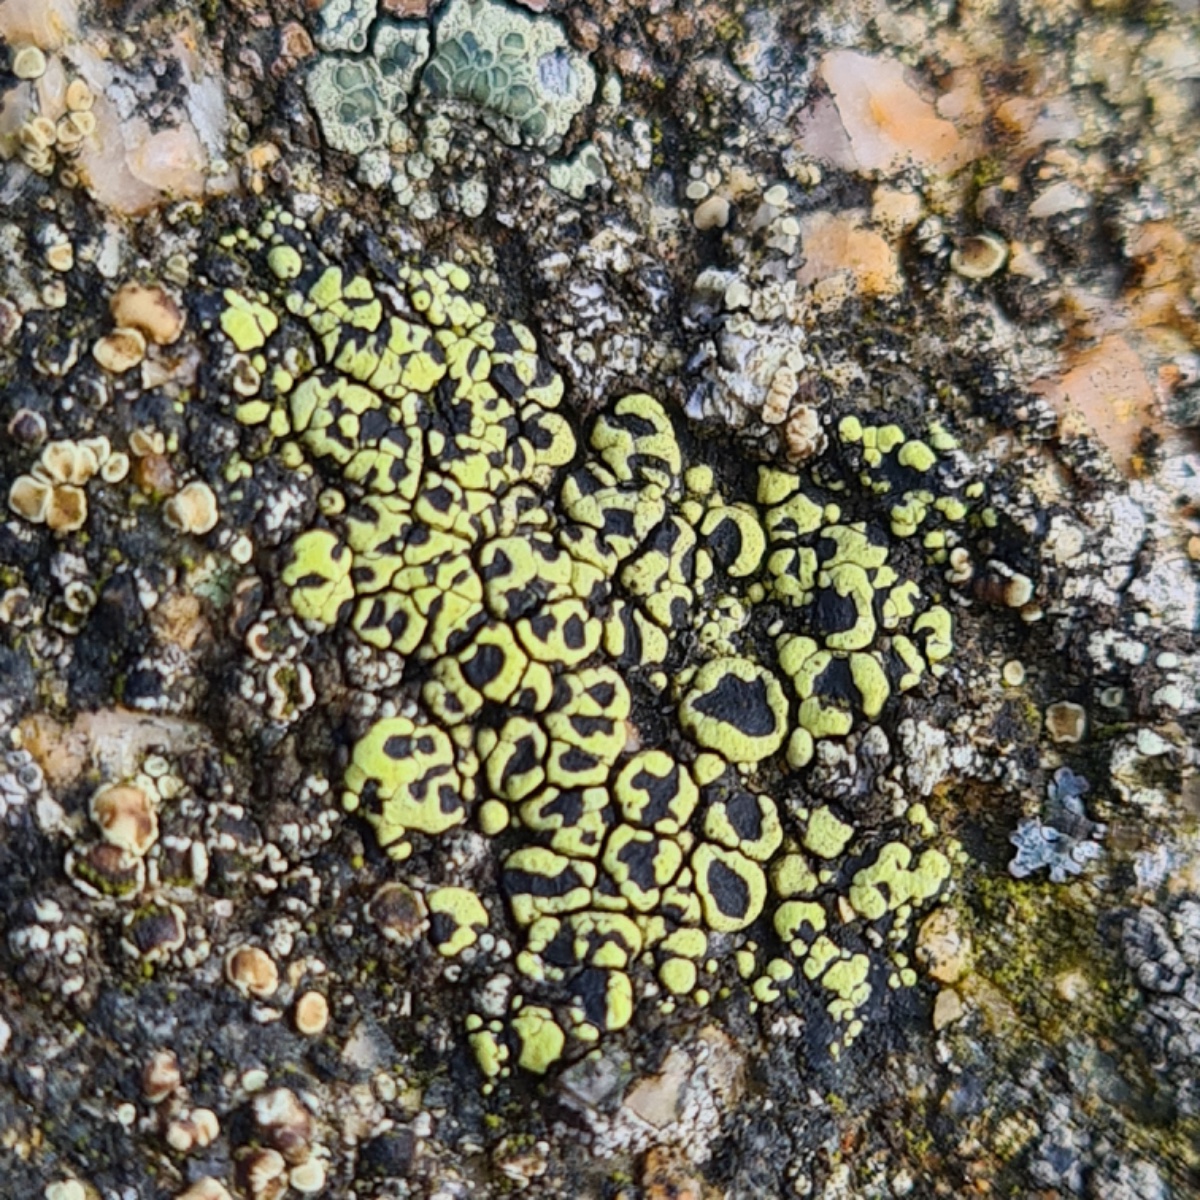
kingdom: Fungi
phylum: Ascomycota
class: Lecanoromycetes
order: Rhizocarpales
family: Rhizocarpaceae
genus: Rhizocarpon
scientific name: Rhizocarpon lecanorinum
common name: krave-landkortlav
